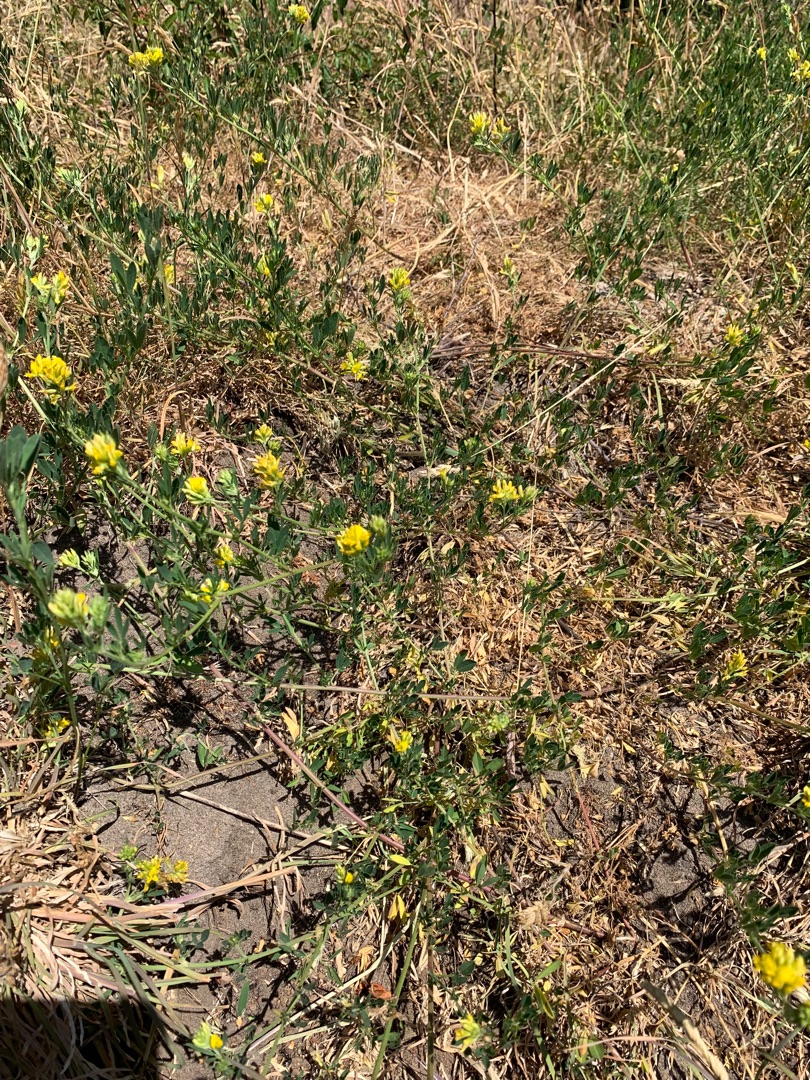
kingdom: Plantae
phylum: Tracheophyta
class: Magnoliopsida
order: Fabales
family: Fabaceae
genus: Medicago
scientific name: Medicago falcata
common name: Segl-sneglebælg
